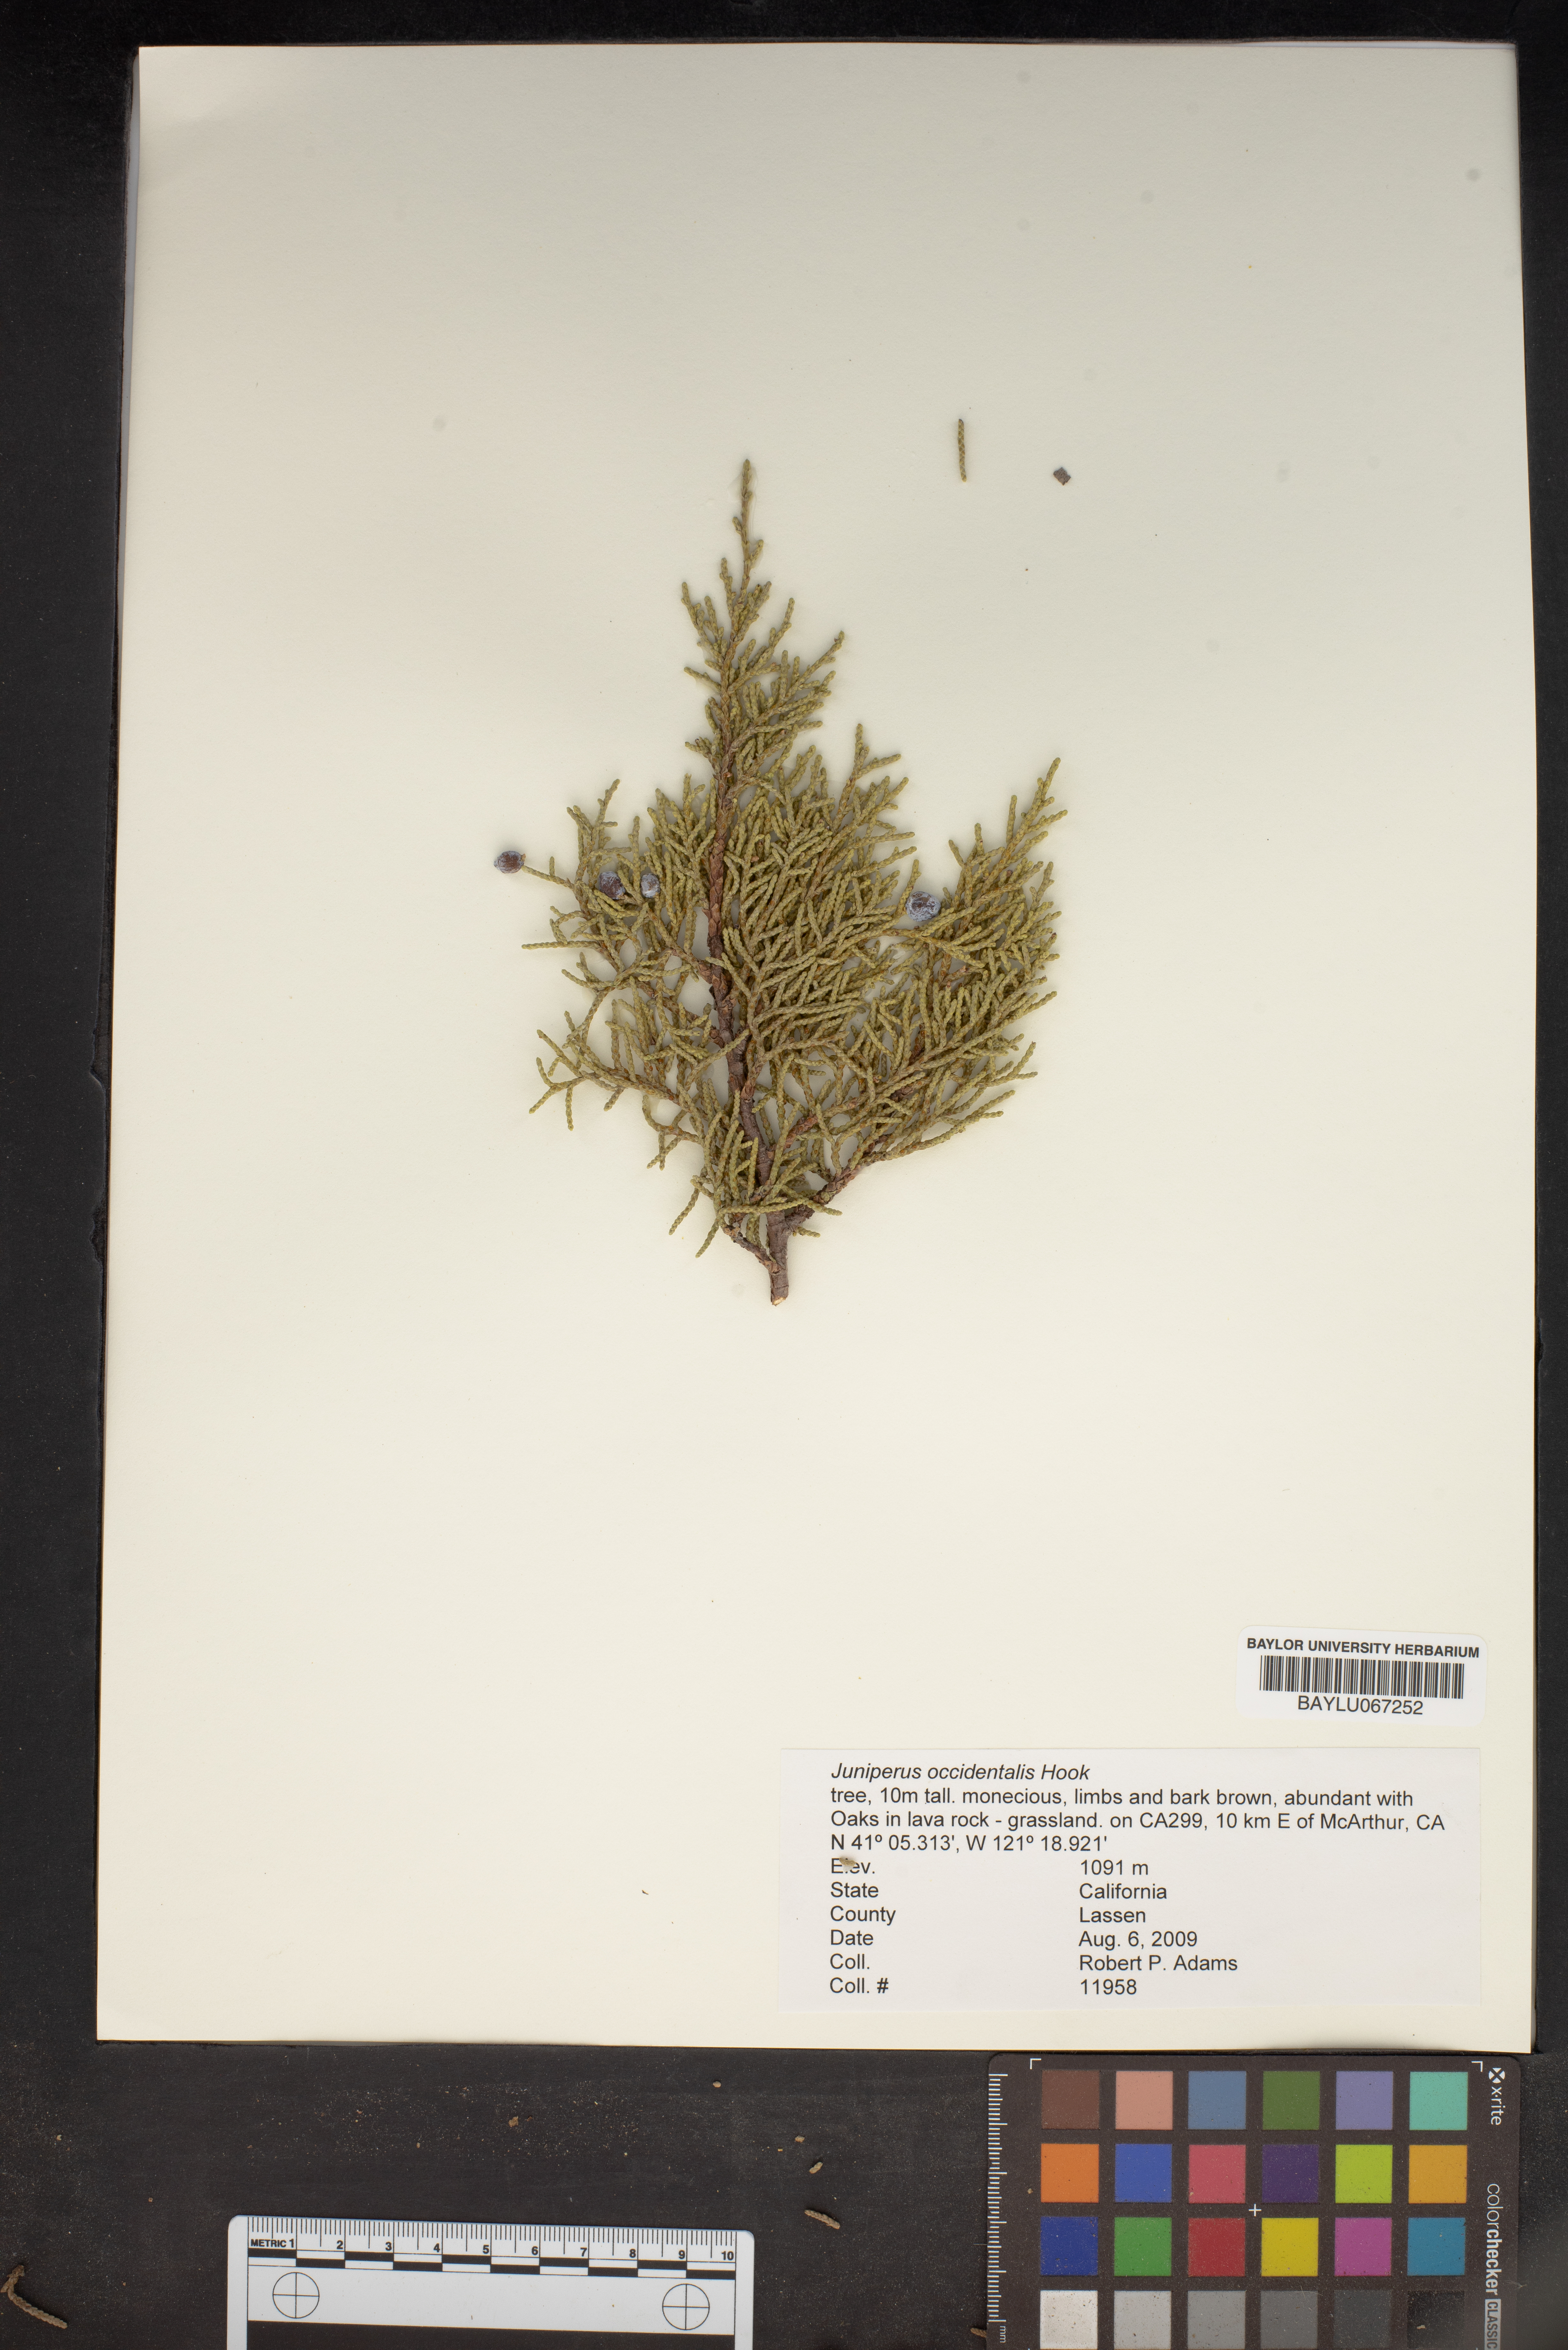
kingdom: Plantae
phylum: Tracheophyta
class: Pinopsida
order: Pinales
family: Cupressaceae
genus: Juniperus
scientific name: Juniperus occidentalis
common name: Western juniper
